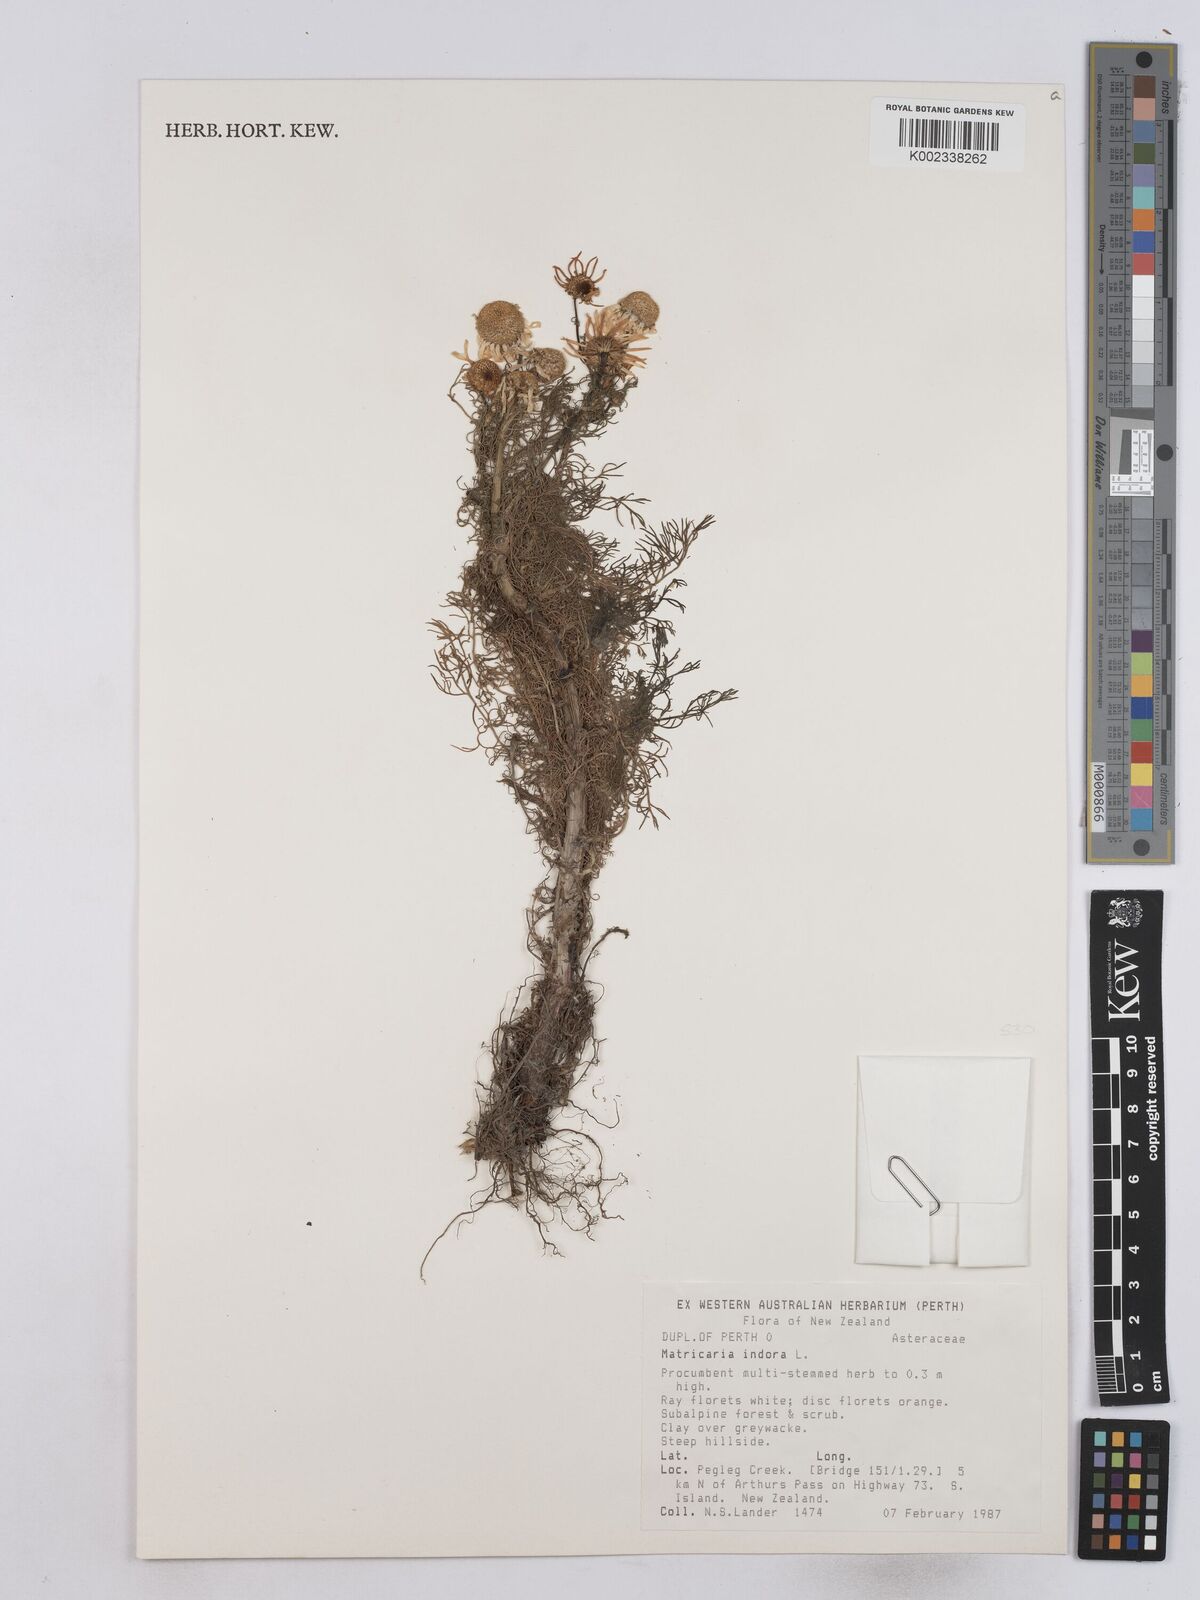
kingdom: Plantae
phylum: Tracheophyta
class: Magnoliopsida
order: Asterales
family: Asteraceae
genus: Matricaria
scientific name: Matricaria discoidea
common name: Disc mayweed
